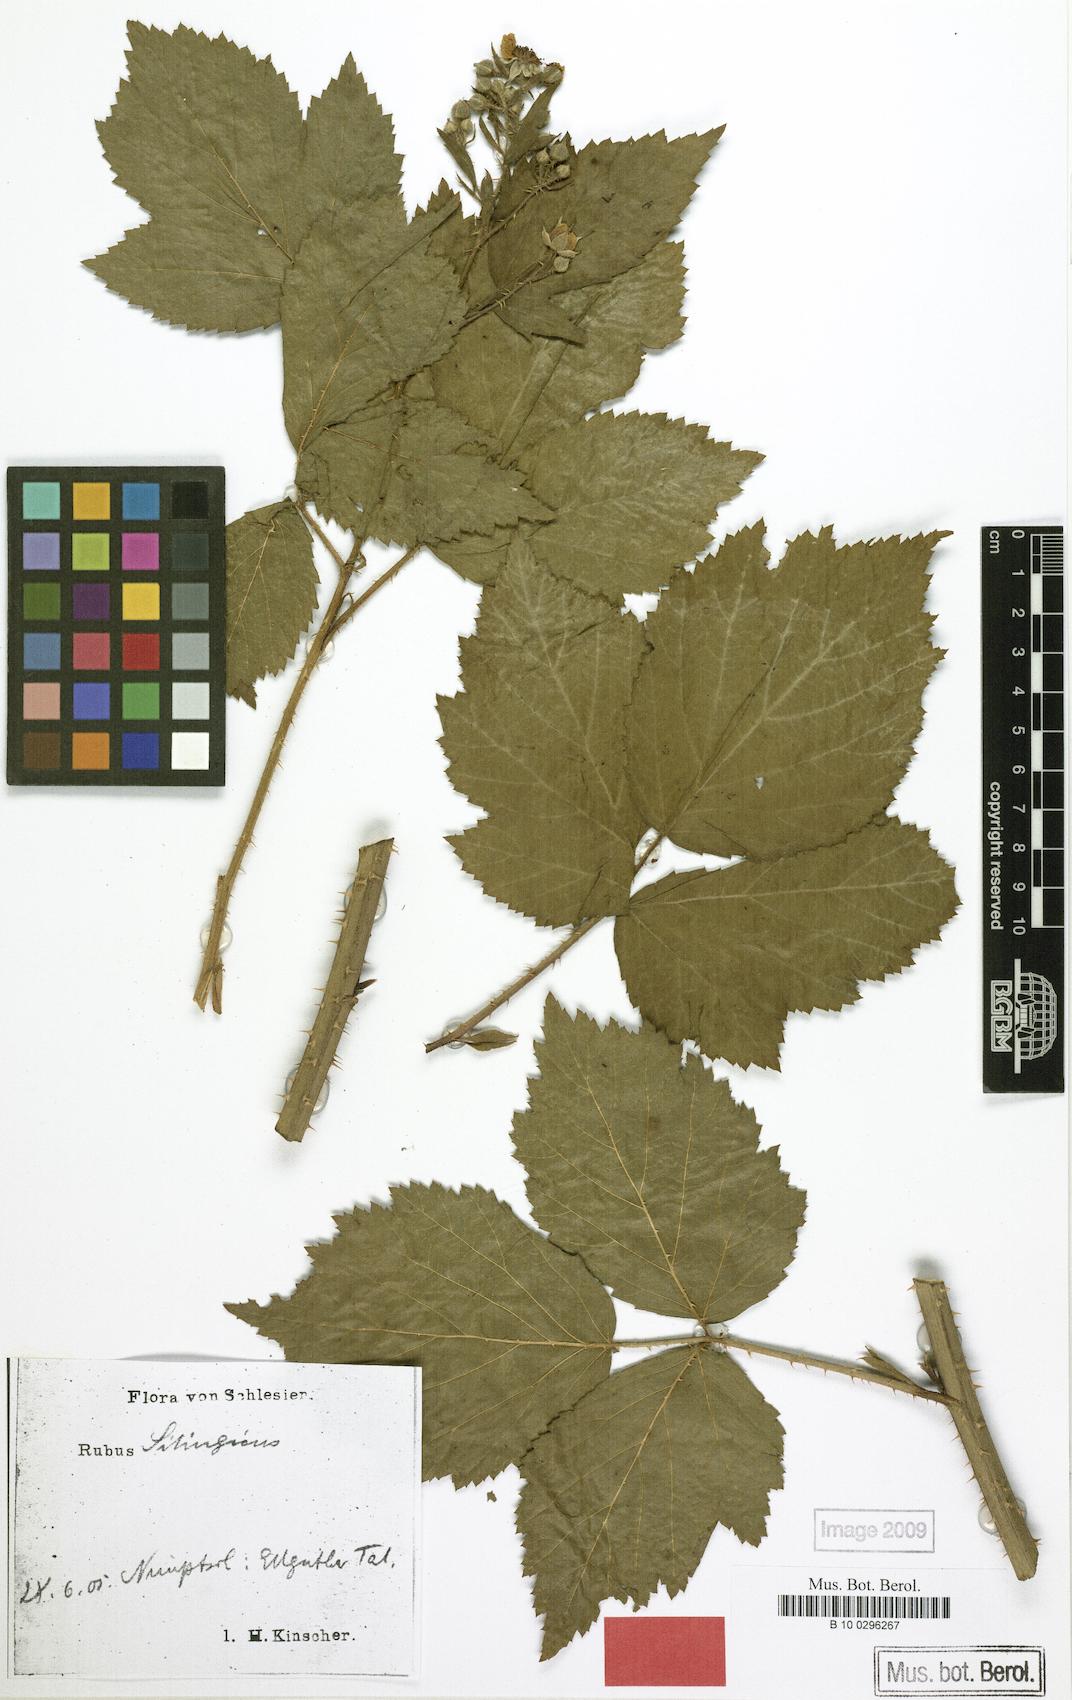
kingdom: Plantae
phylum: Tracheophyta
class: Magnoliopsida
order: Rosales
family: Rosaceae
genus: Rubus
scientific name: Rubus chlorothyrsos
